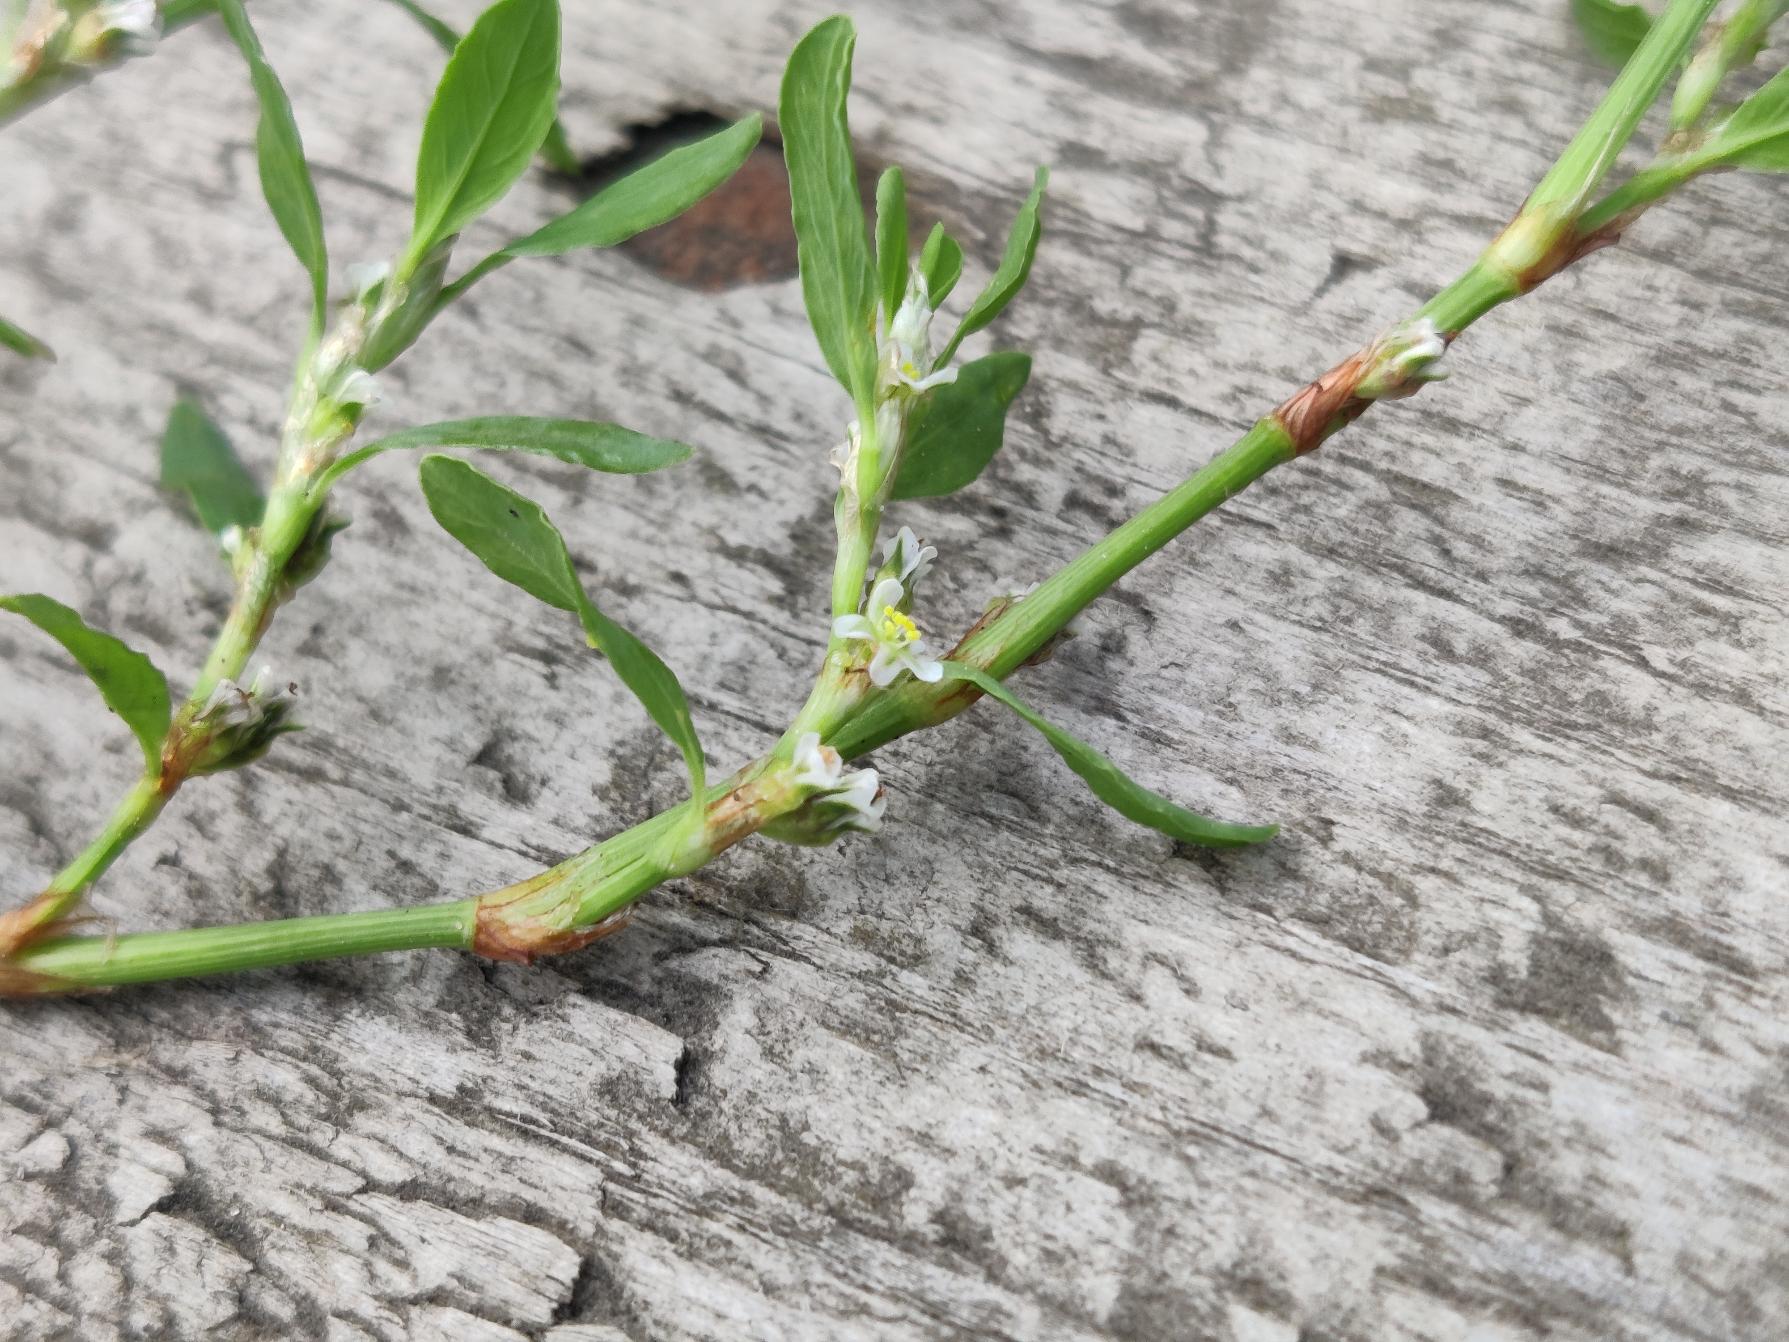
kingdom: Plantae
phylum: Tracheophyta
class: Magnoliopsida
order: Caryophyllales
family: Polygonaceae
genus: Polygonum
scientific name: Polygonum arenastrum
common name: Liggende vej-pileurt
